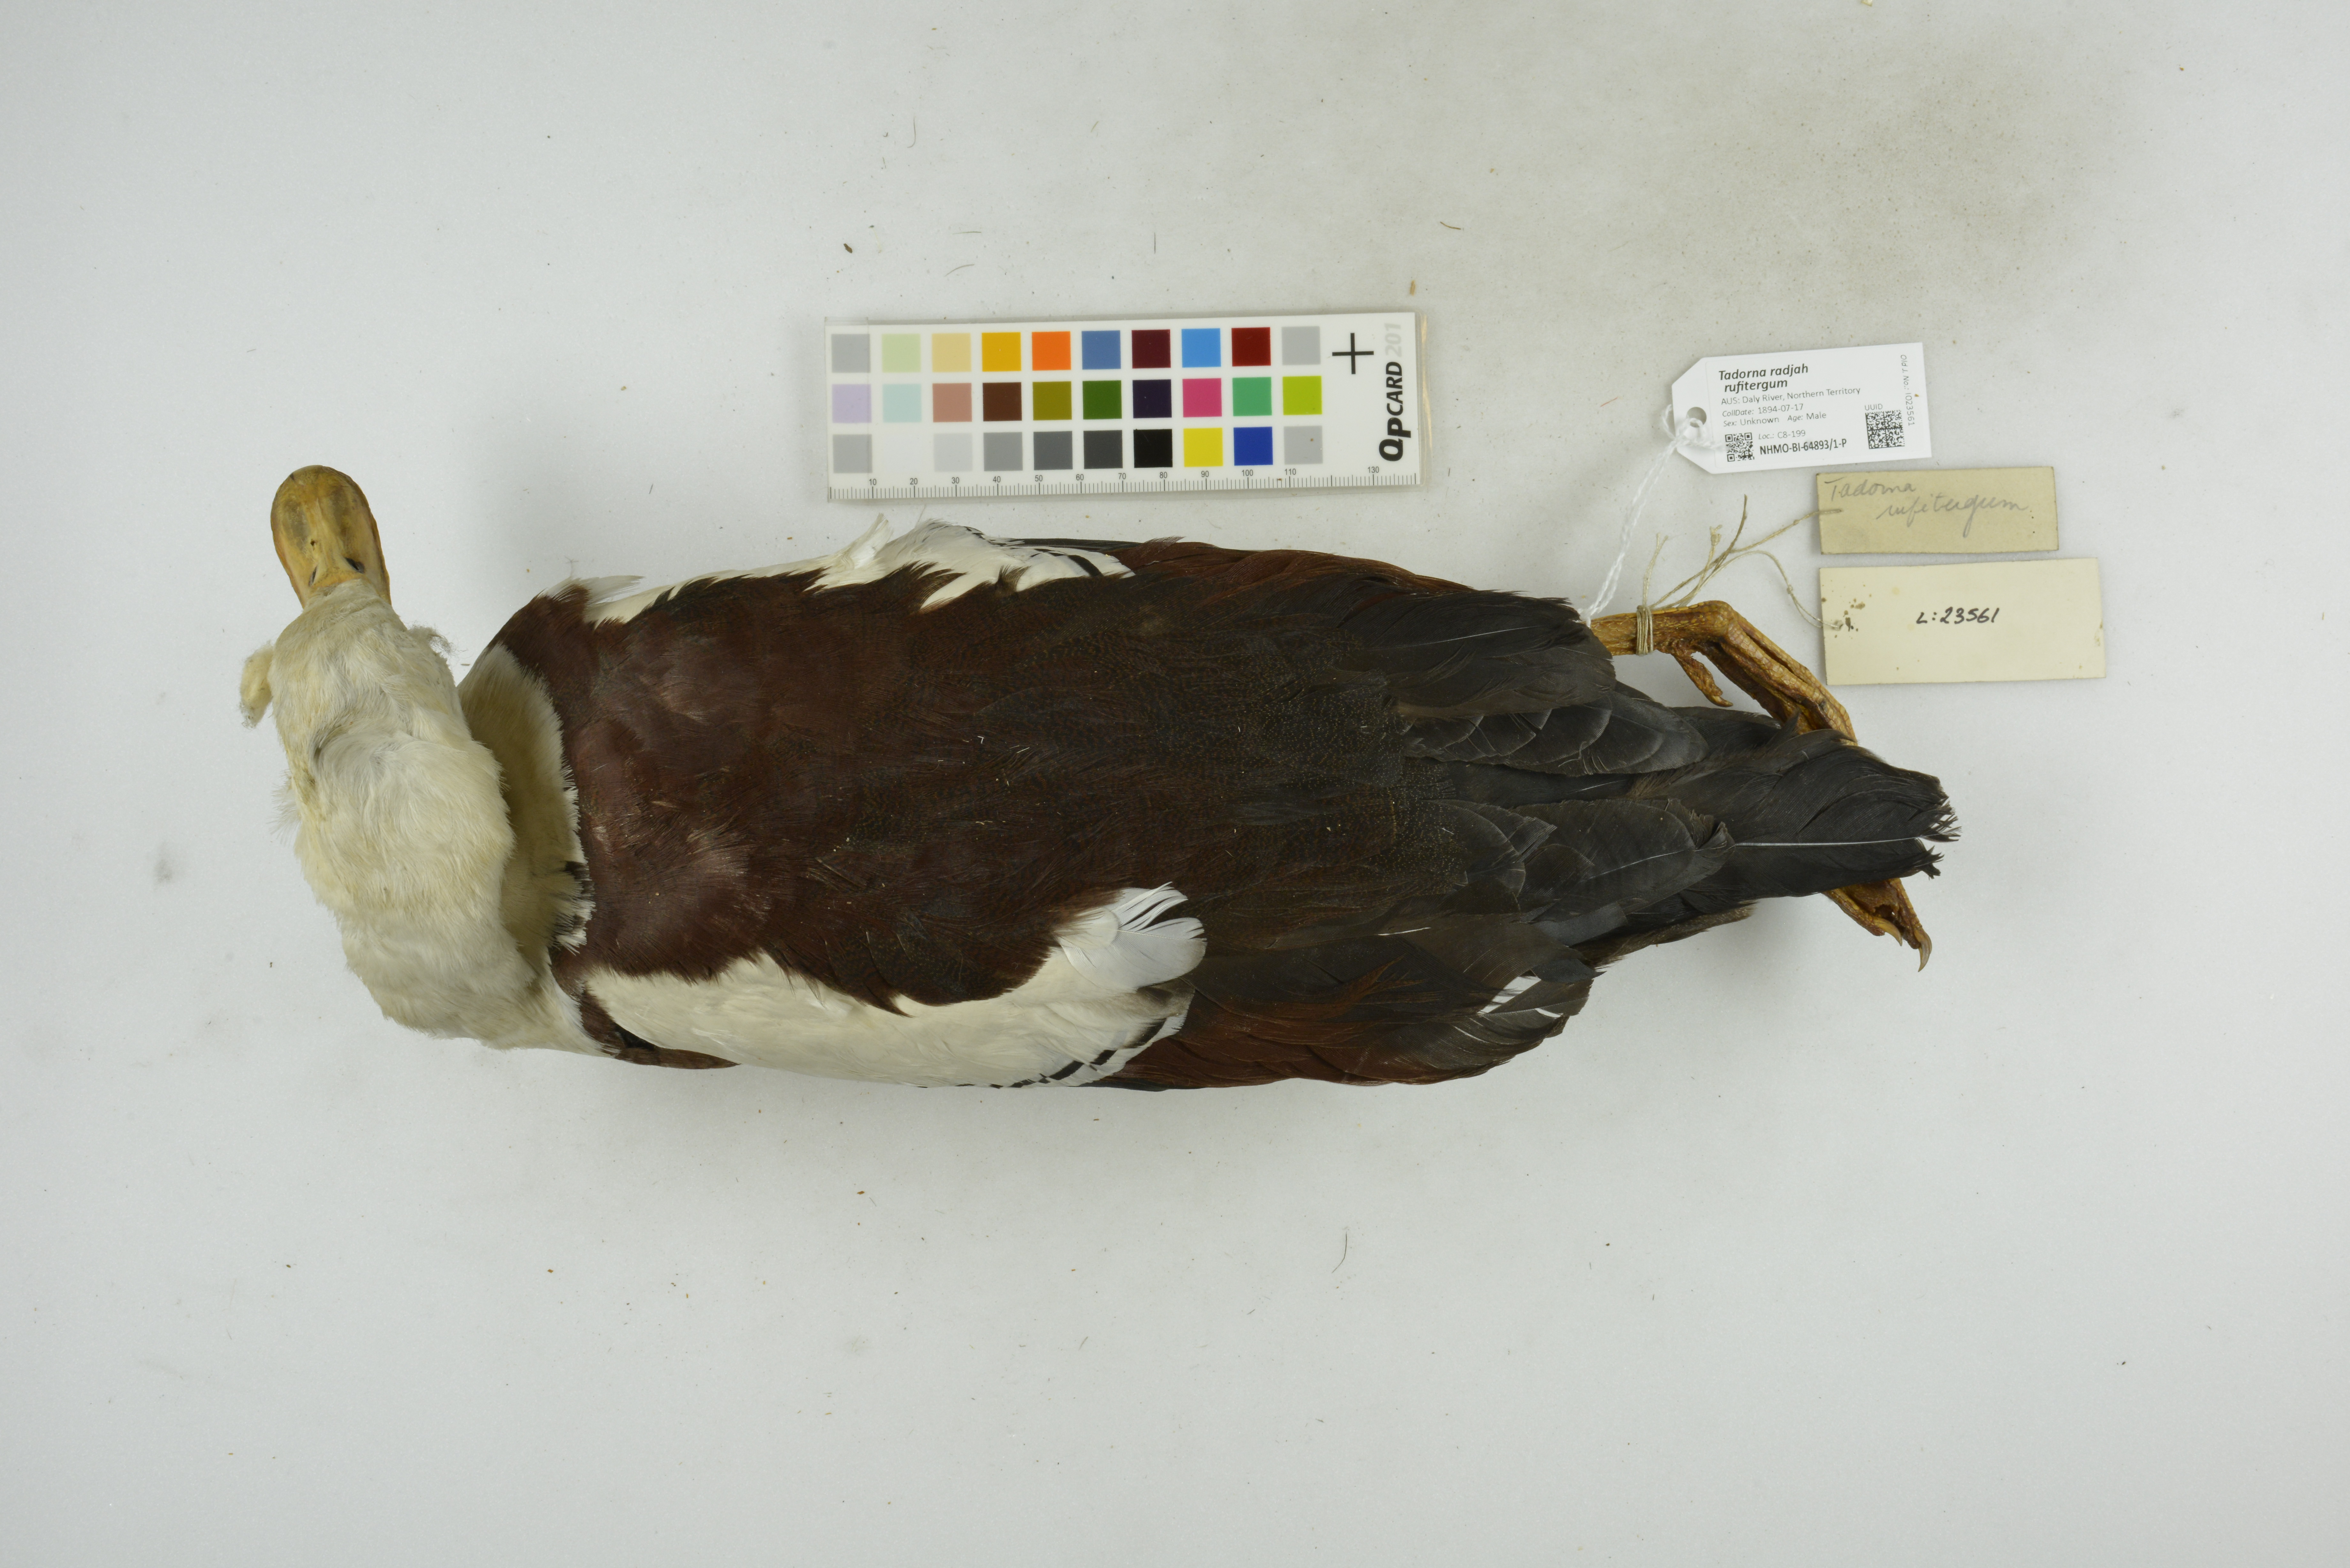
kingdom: Animalia
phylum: Chordata
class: Aves
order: Anseriformes
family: Anatidae
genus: Radjah
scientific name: Radjah radjah
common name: Radjah shelduck
